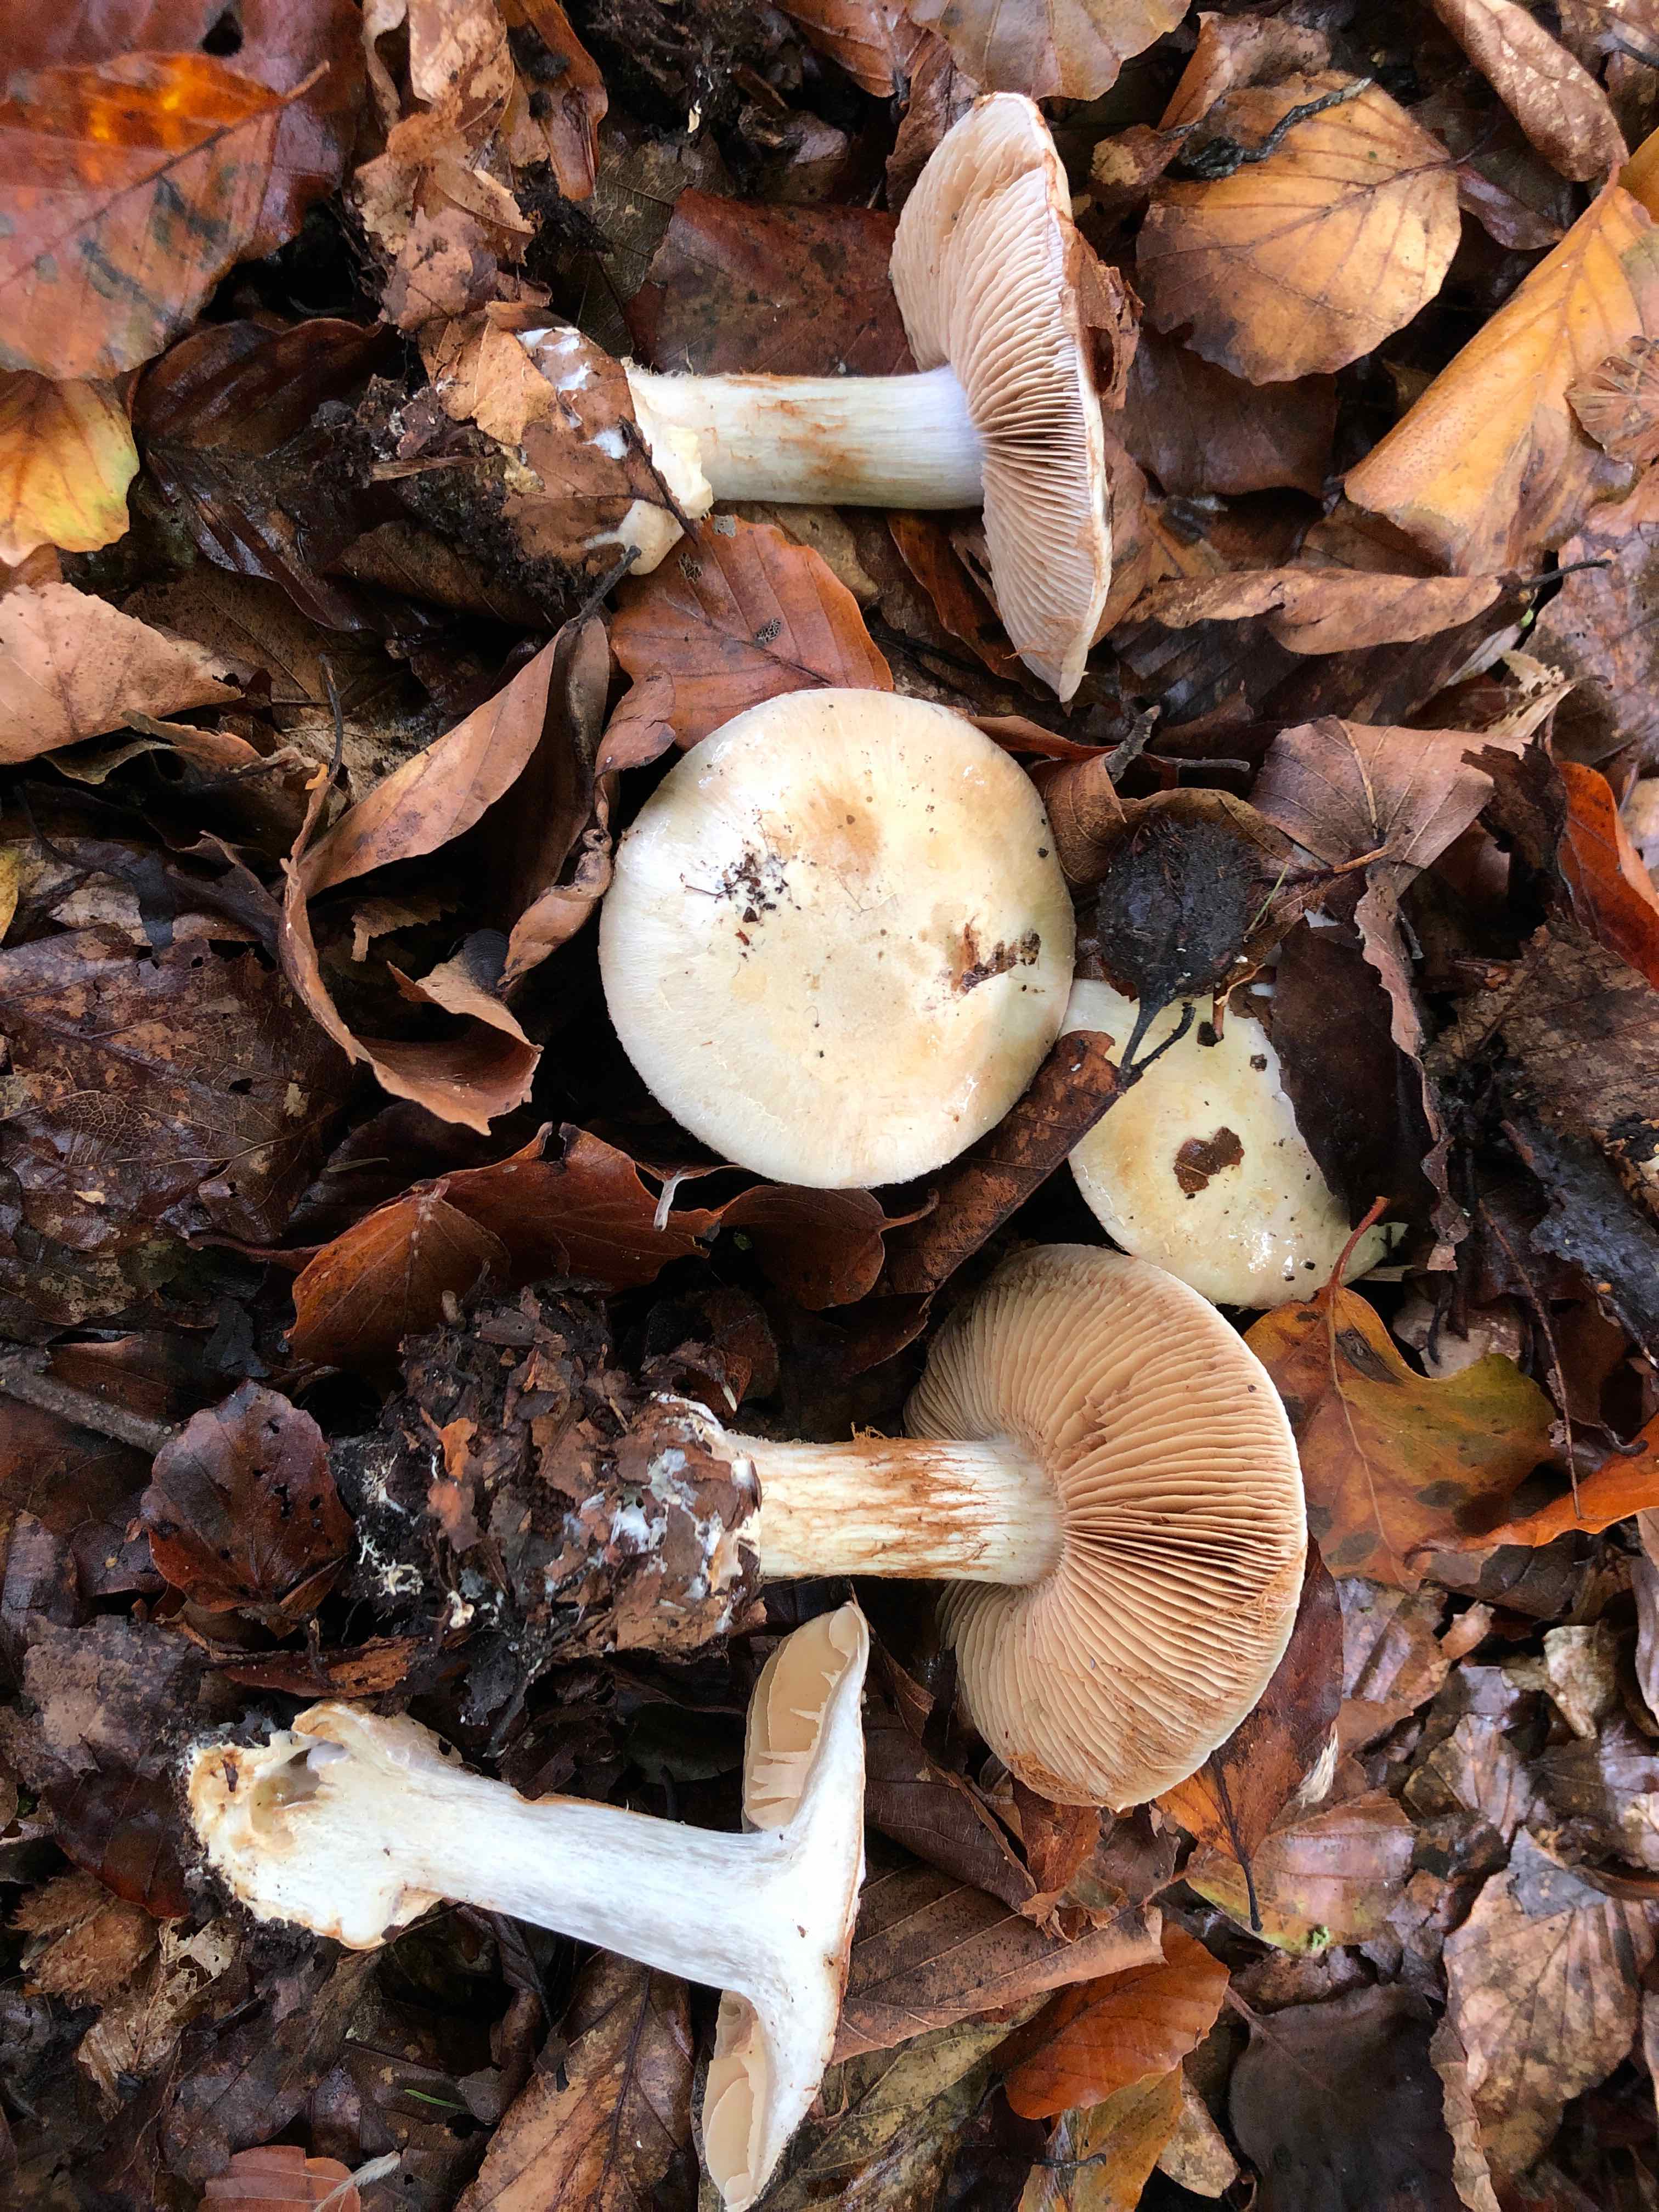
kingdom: Fungi
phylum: Basidiomycota
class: Agaricomycetes
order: Agaricales
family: Cortinariaceae
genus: Cortinarius
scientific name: Cortinarius foetens
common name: stribet slørhat
